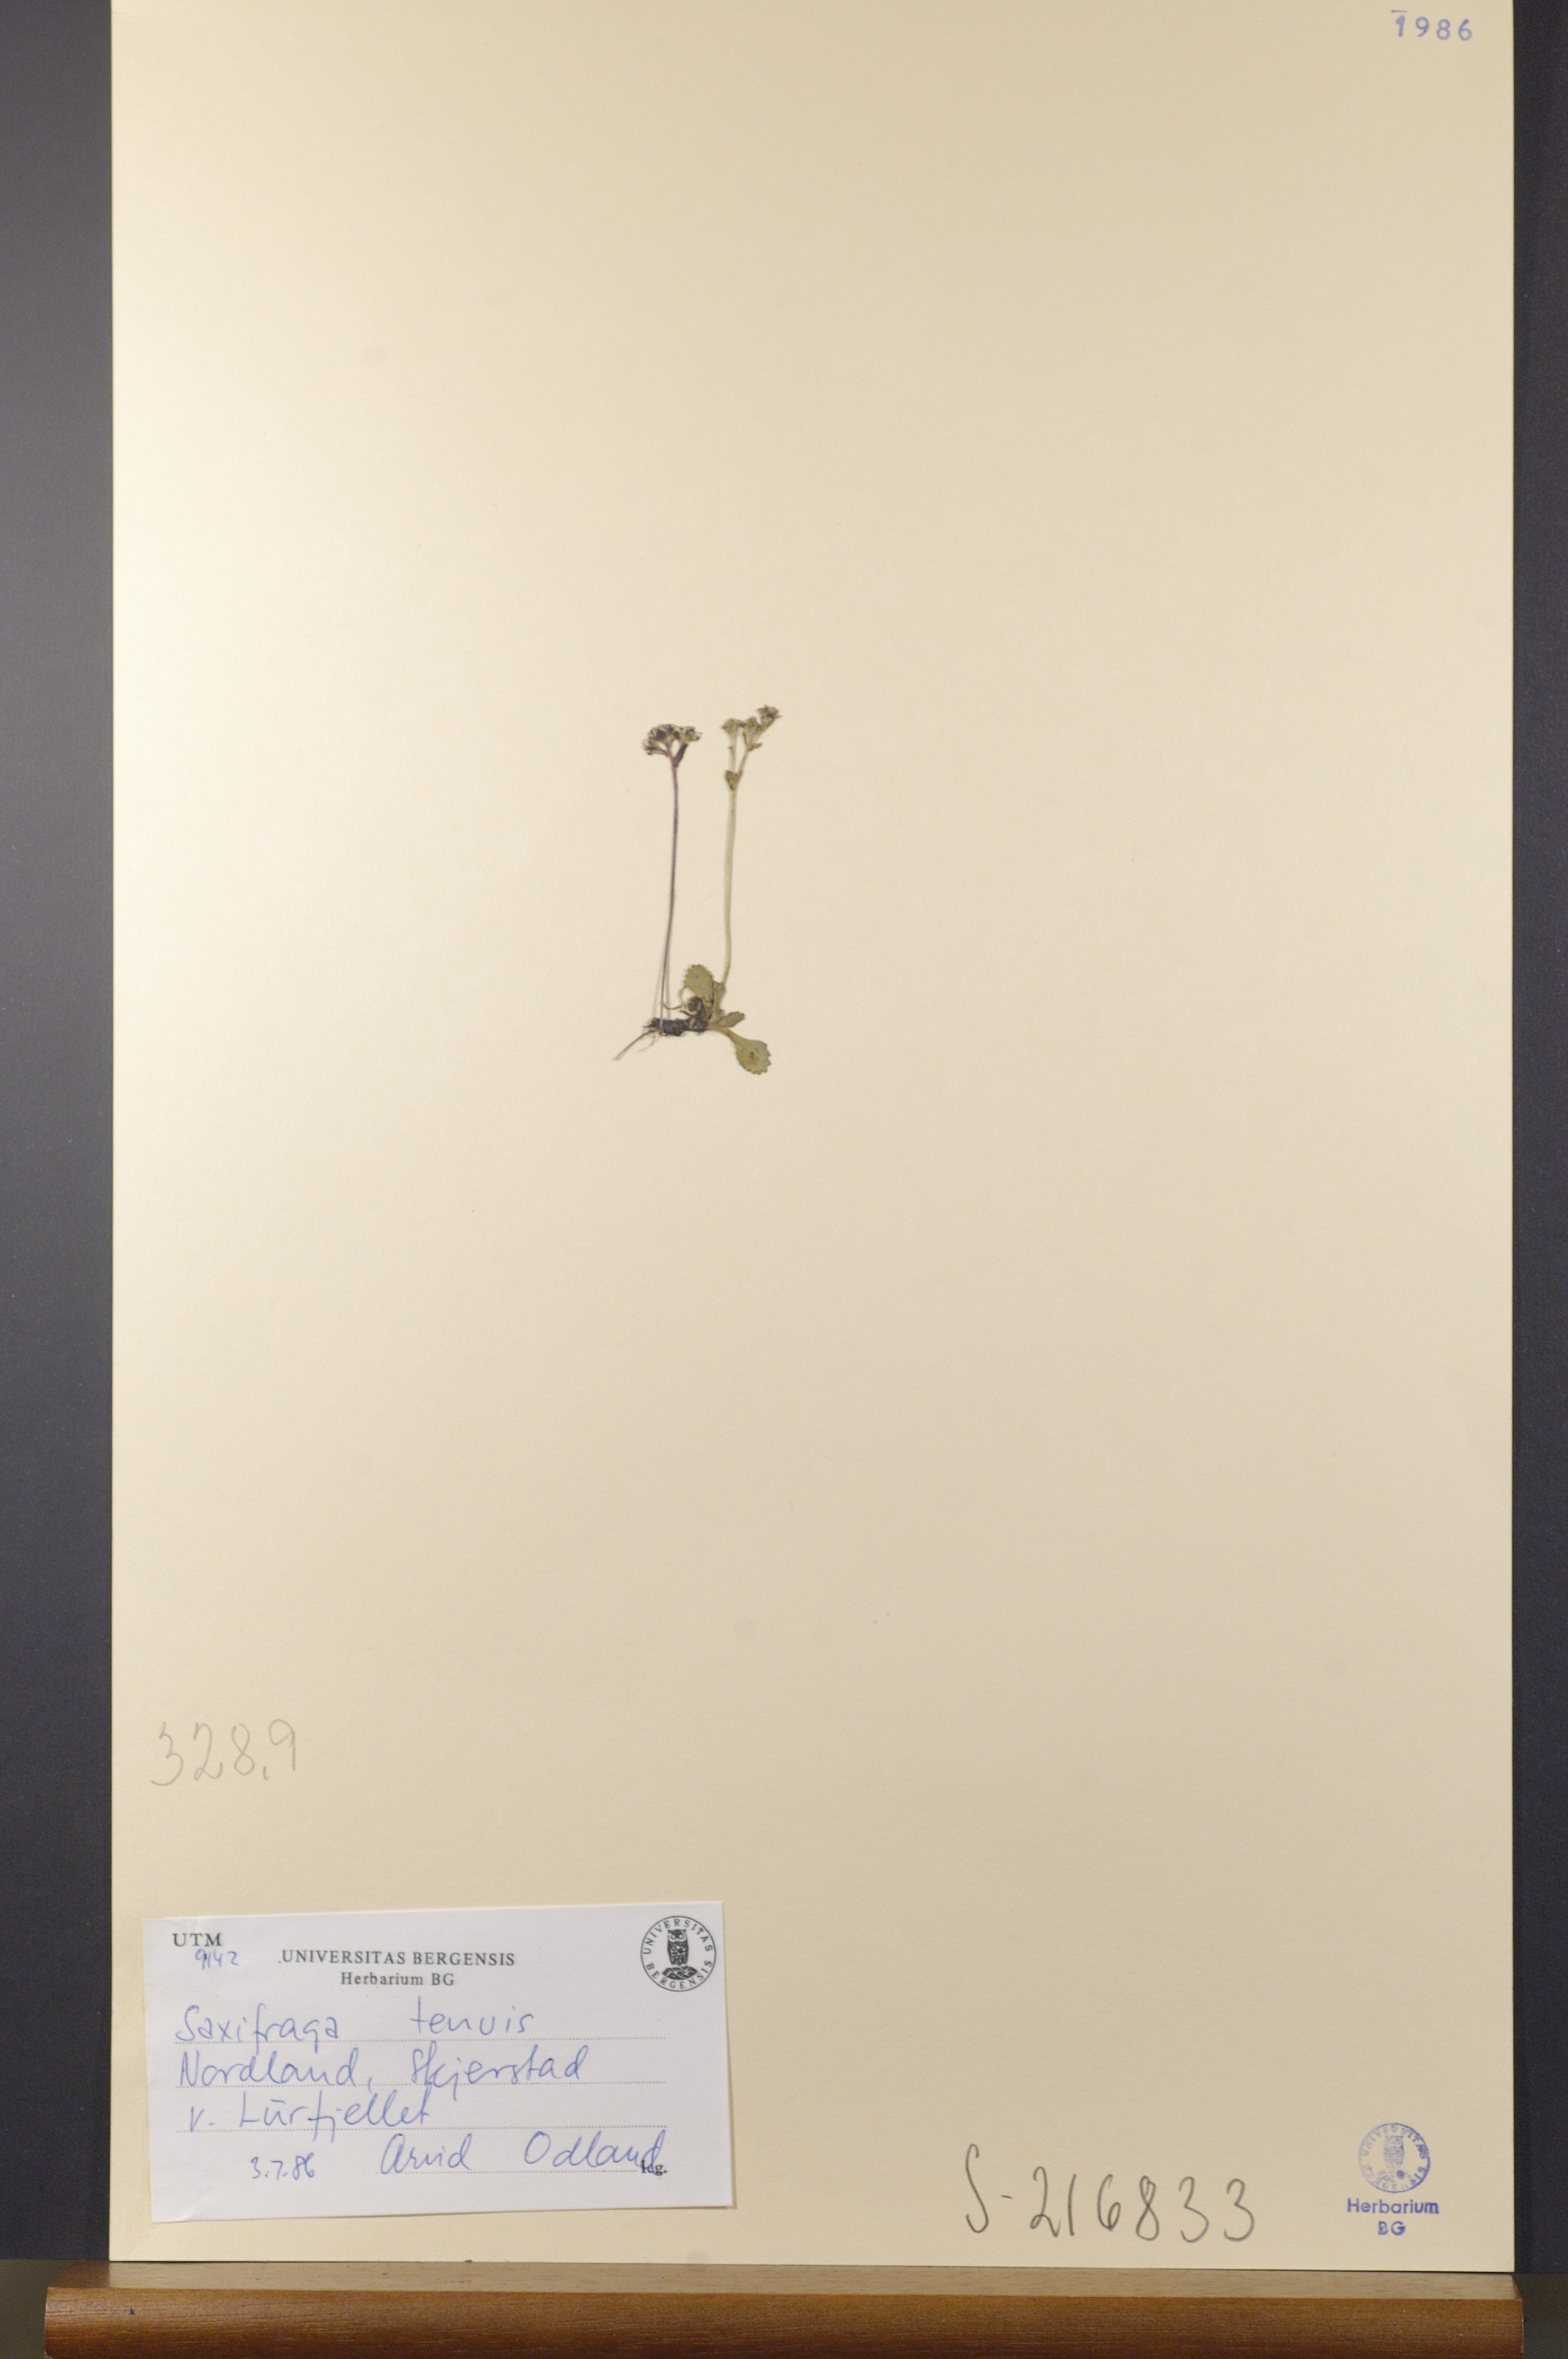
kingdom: Plantae
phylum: Tracheophyta
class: Magnoliopsida
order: Saxifragales
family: Saxifragaceae
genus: Micranthes
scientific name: Micranthes tenuis
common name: Ottertail pass saxifrage
